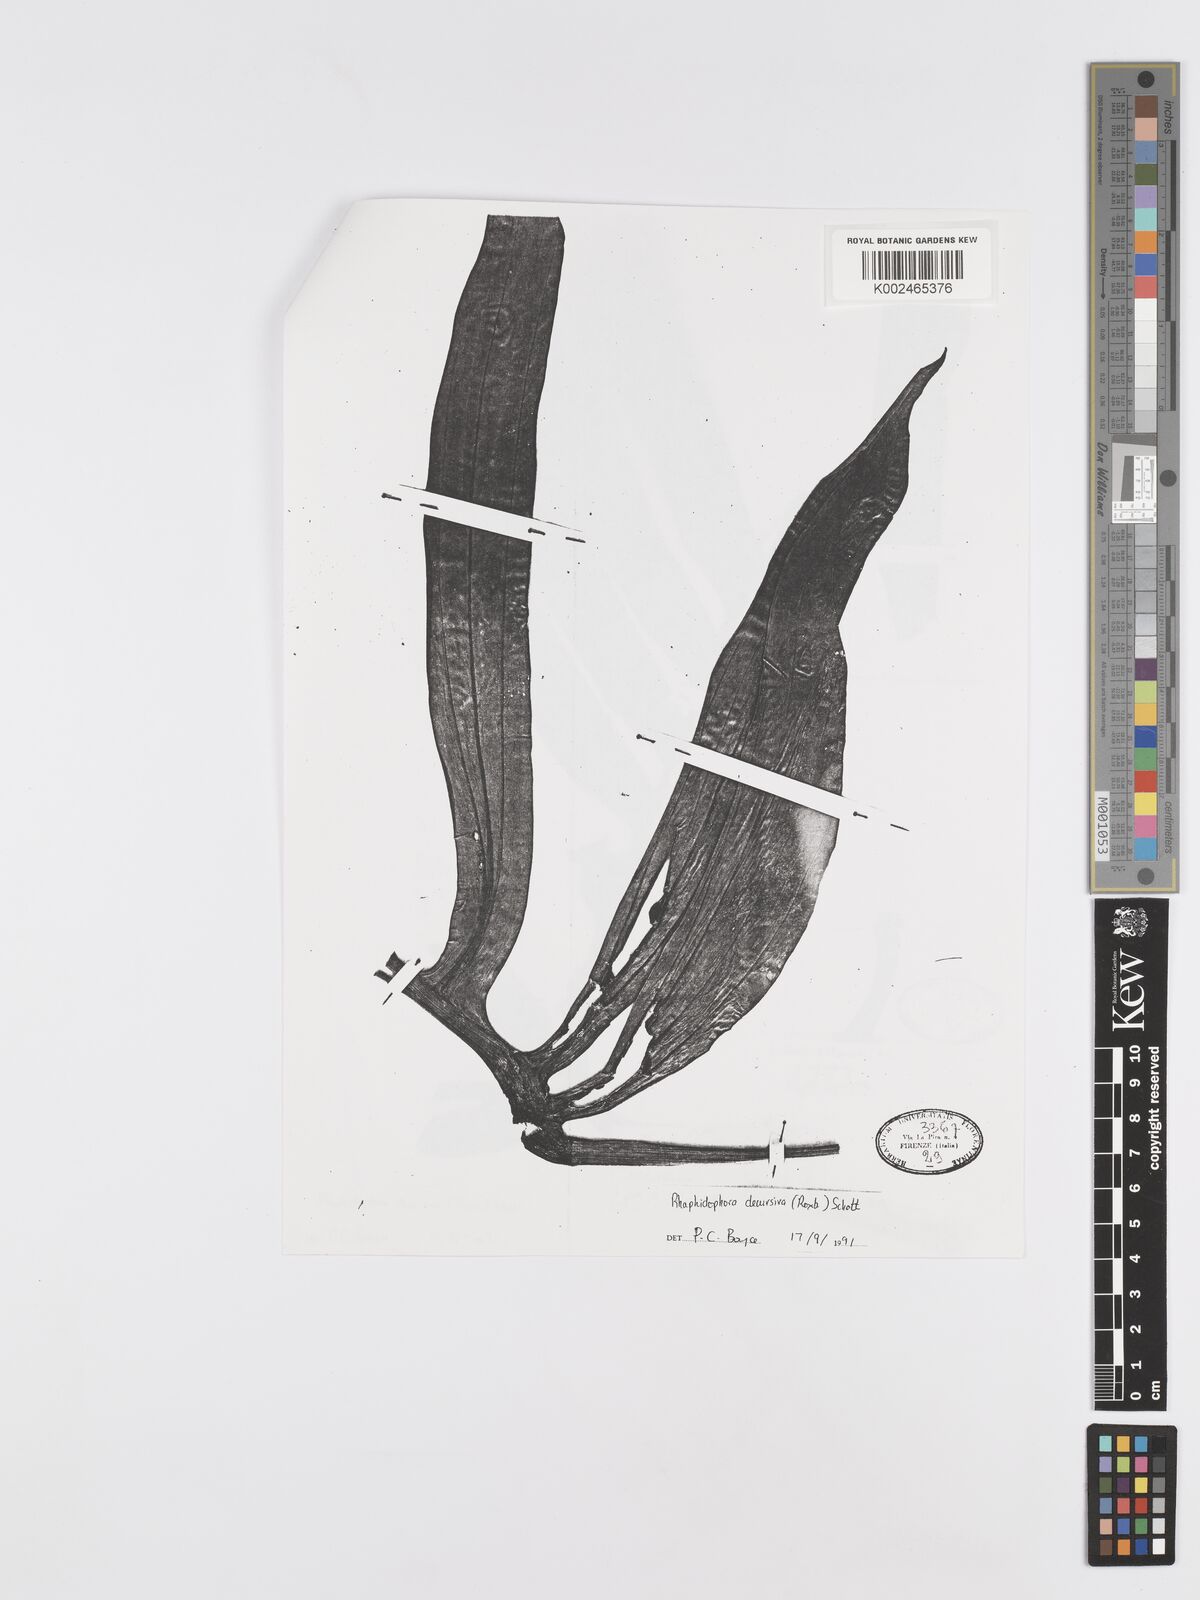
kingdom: Plantae
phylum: Tracheophyta
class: Liliopsida
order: Alismatales
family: Araceae
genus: Rhaphidophora
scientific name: Rhaphidophora decursiva
